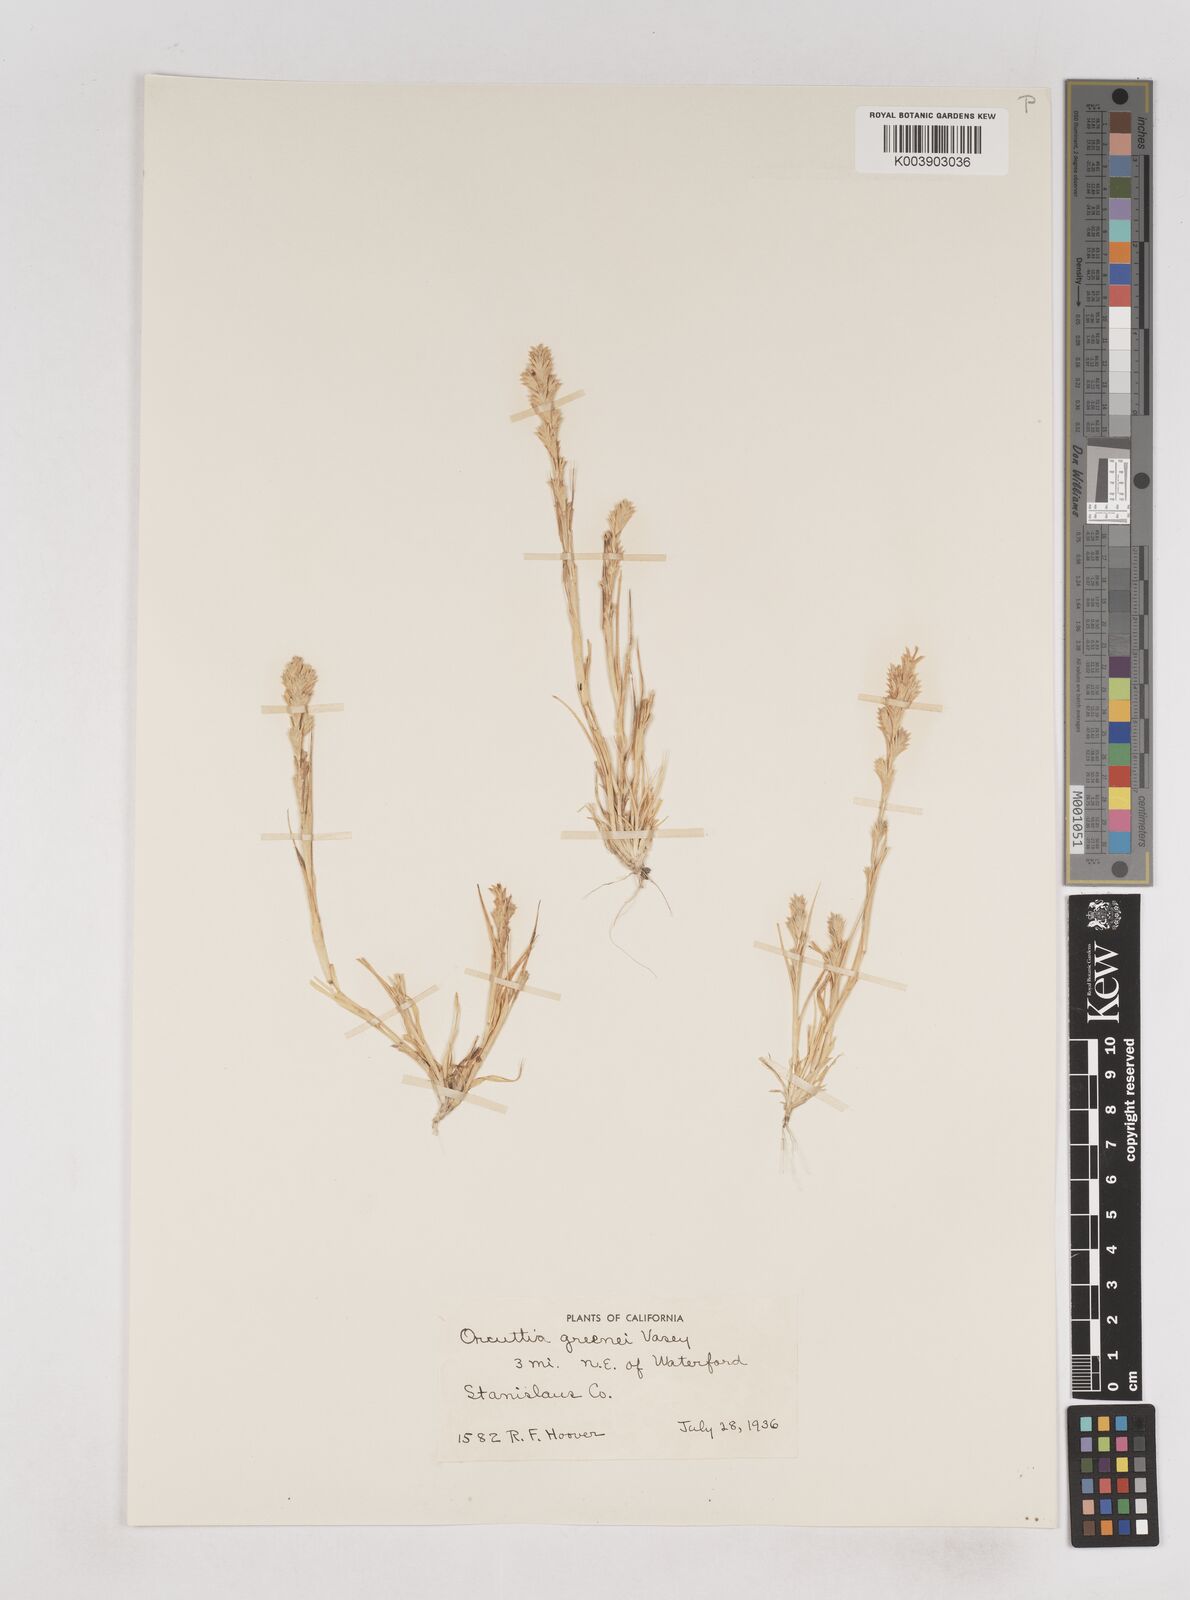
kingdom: Plantae
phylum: Tracheophyta
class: Liliopsida
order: Poales
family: Poaceae
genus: Tuctoria
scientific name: Tuctoria greenei
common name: Awnless spiral grass
